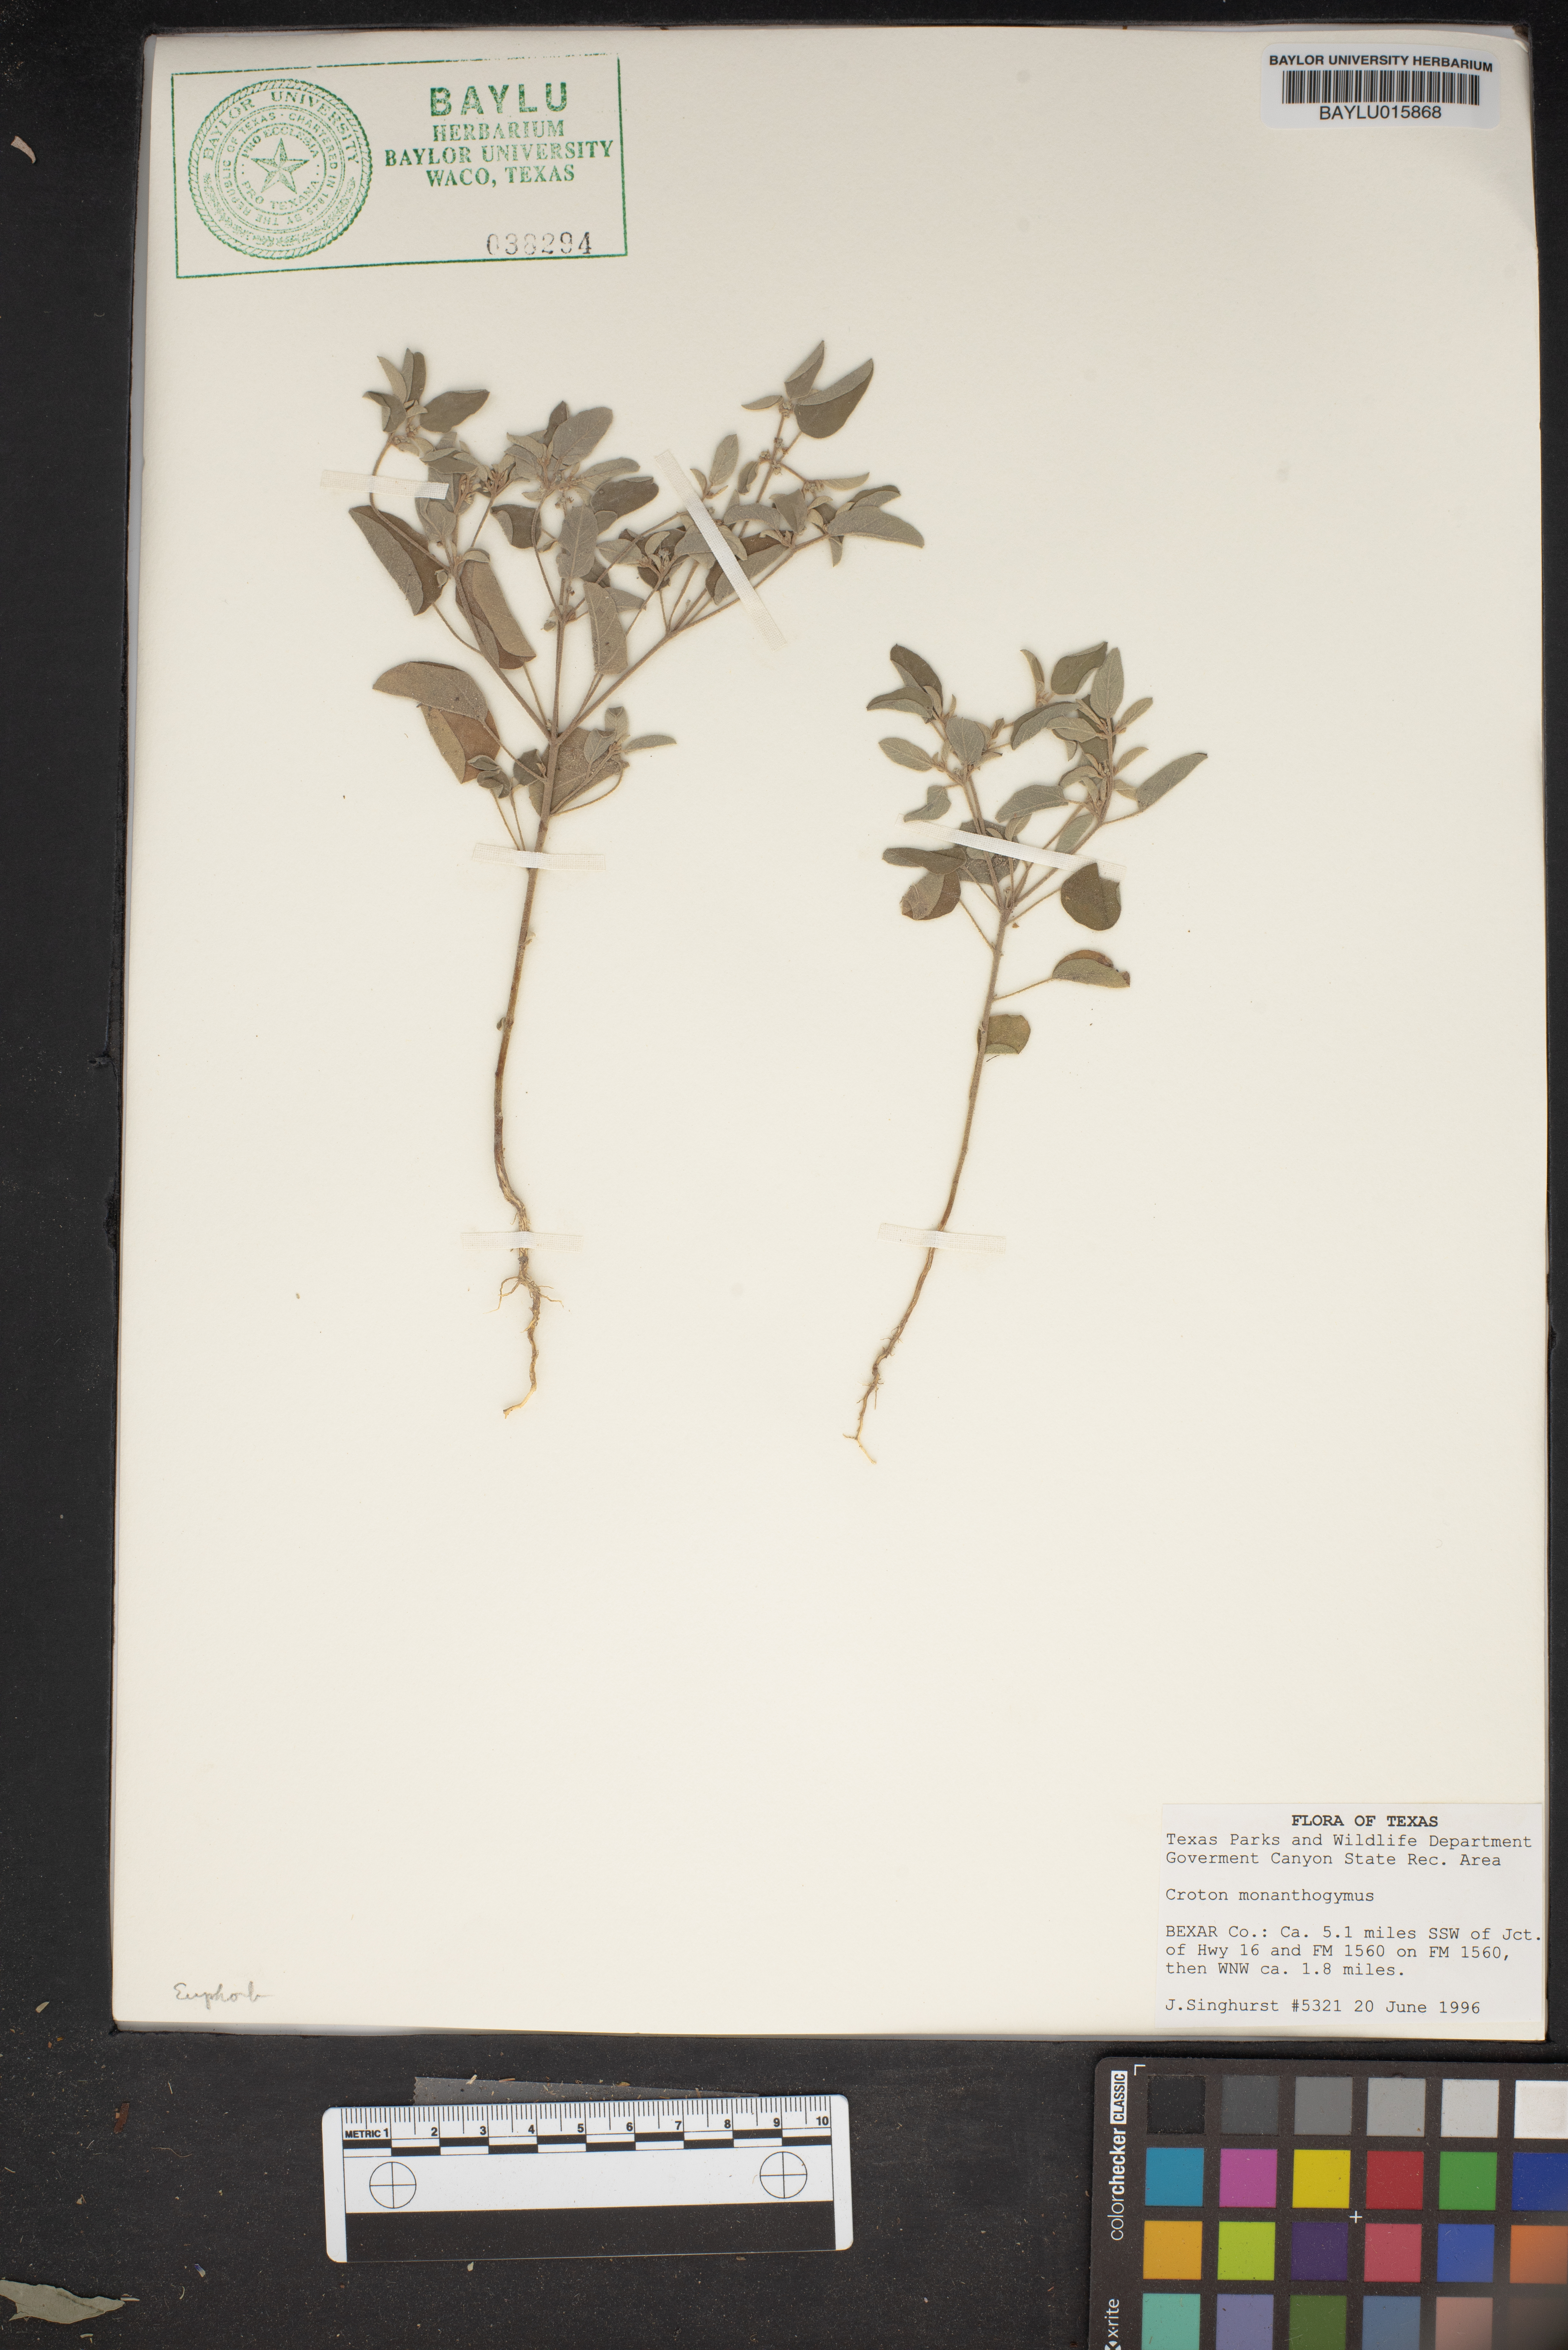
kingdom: Plantae
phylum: Tracheophyta
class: Magnoliopsida
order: Malpighiales
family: Euphorbiaceae
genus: Croton
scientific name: Croton monanthogynus
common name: One-seed croton
